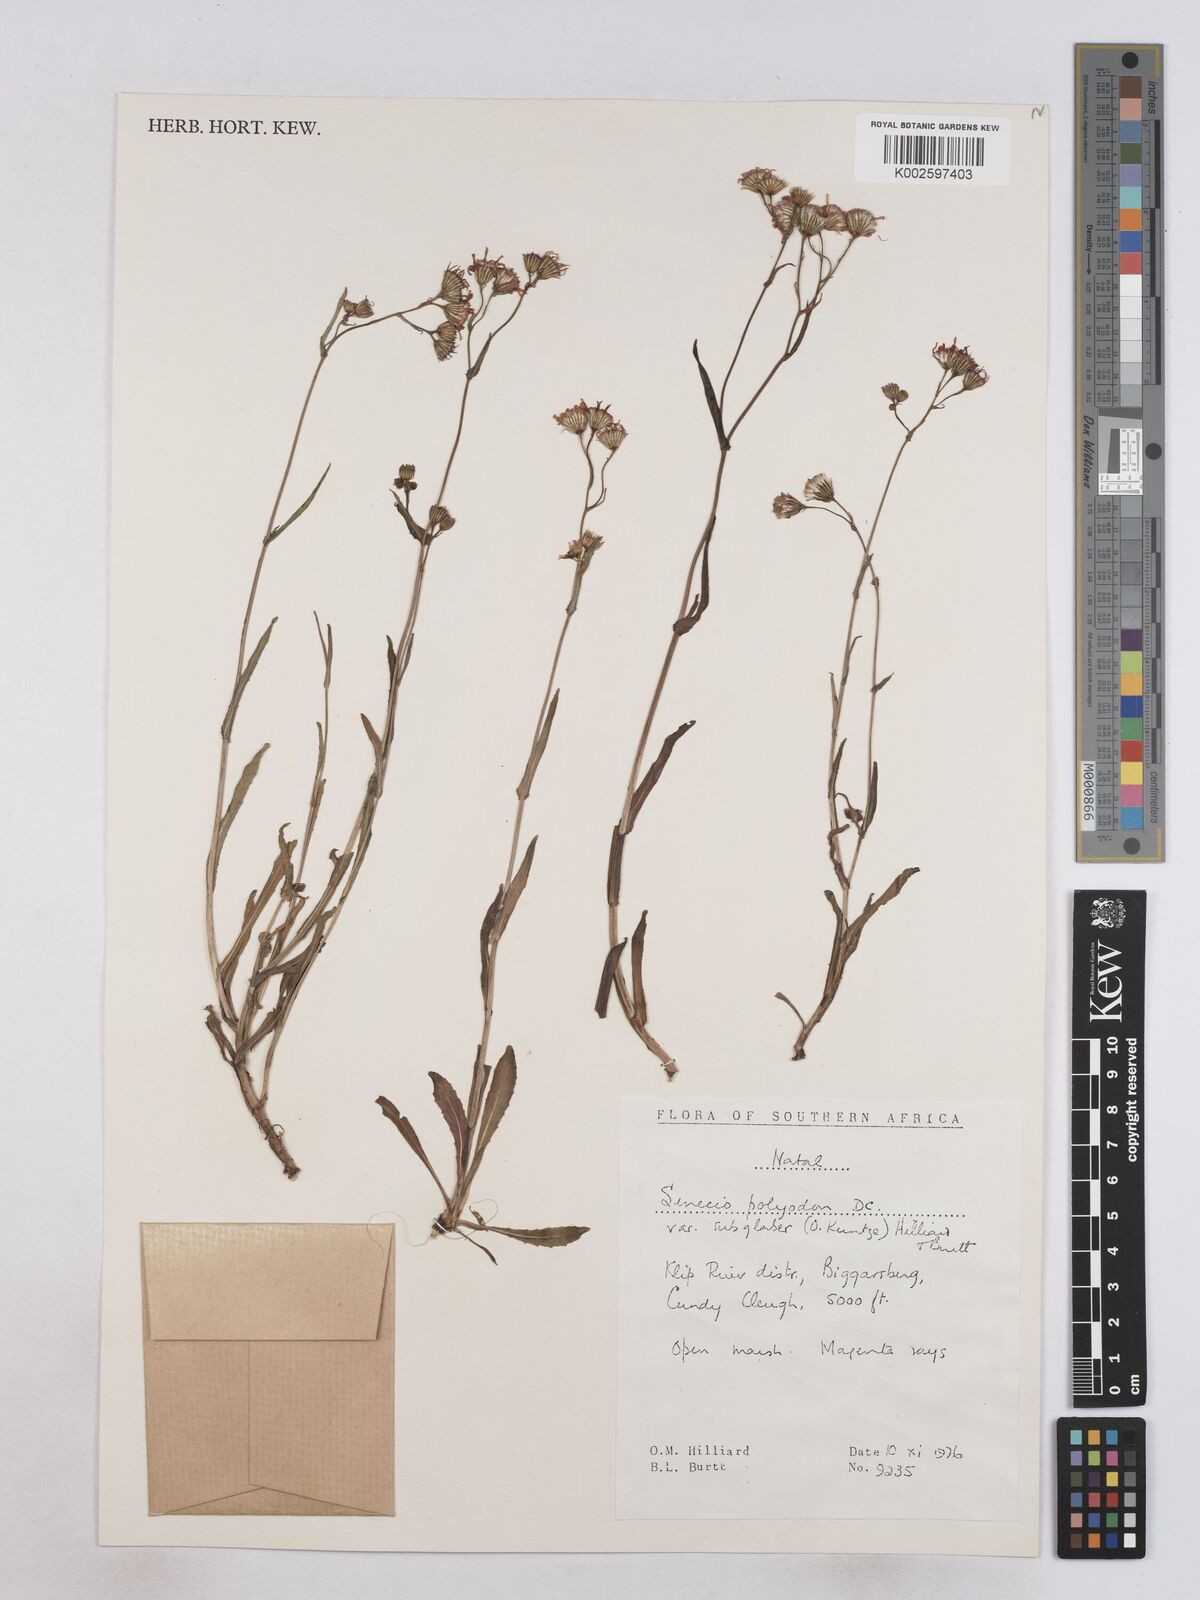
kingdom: Plantae
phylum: Tracheophyta
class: Magnoliopsida
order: Asterales
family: Asteraceae
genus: Senecio
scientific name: Senecio polyodon
